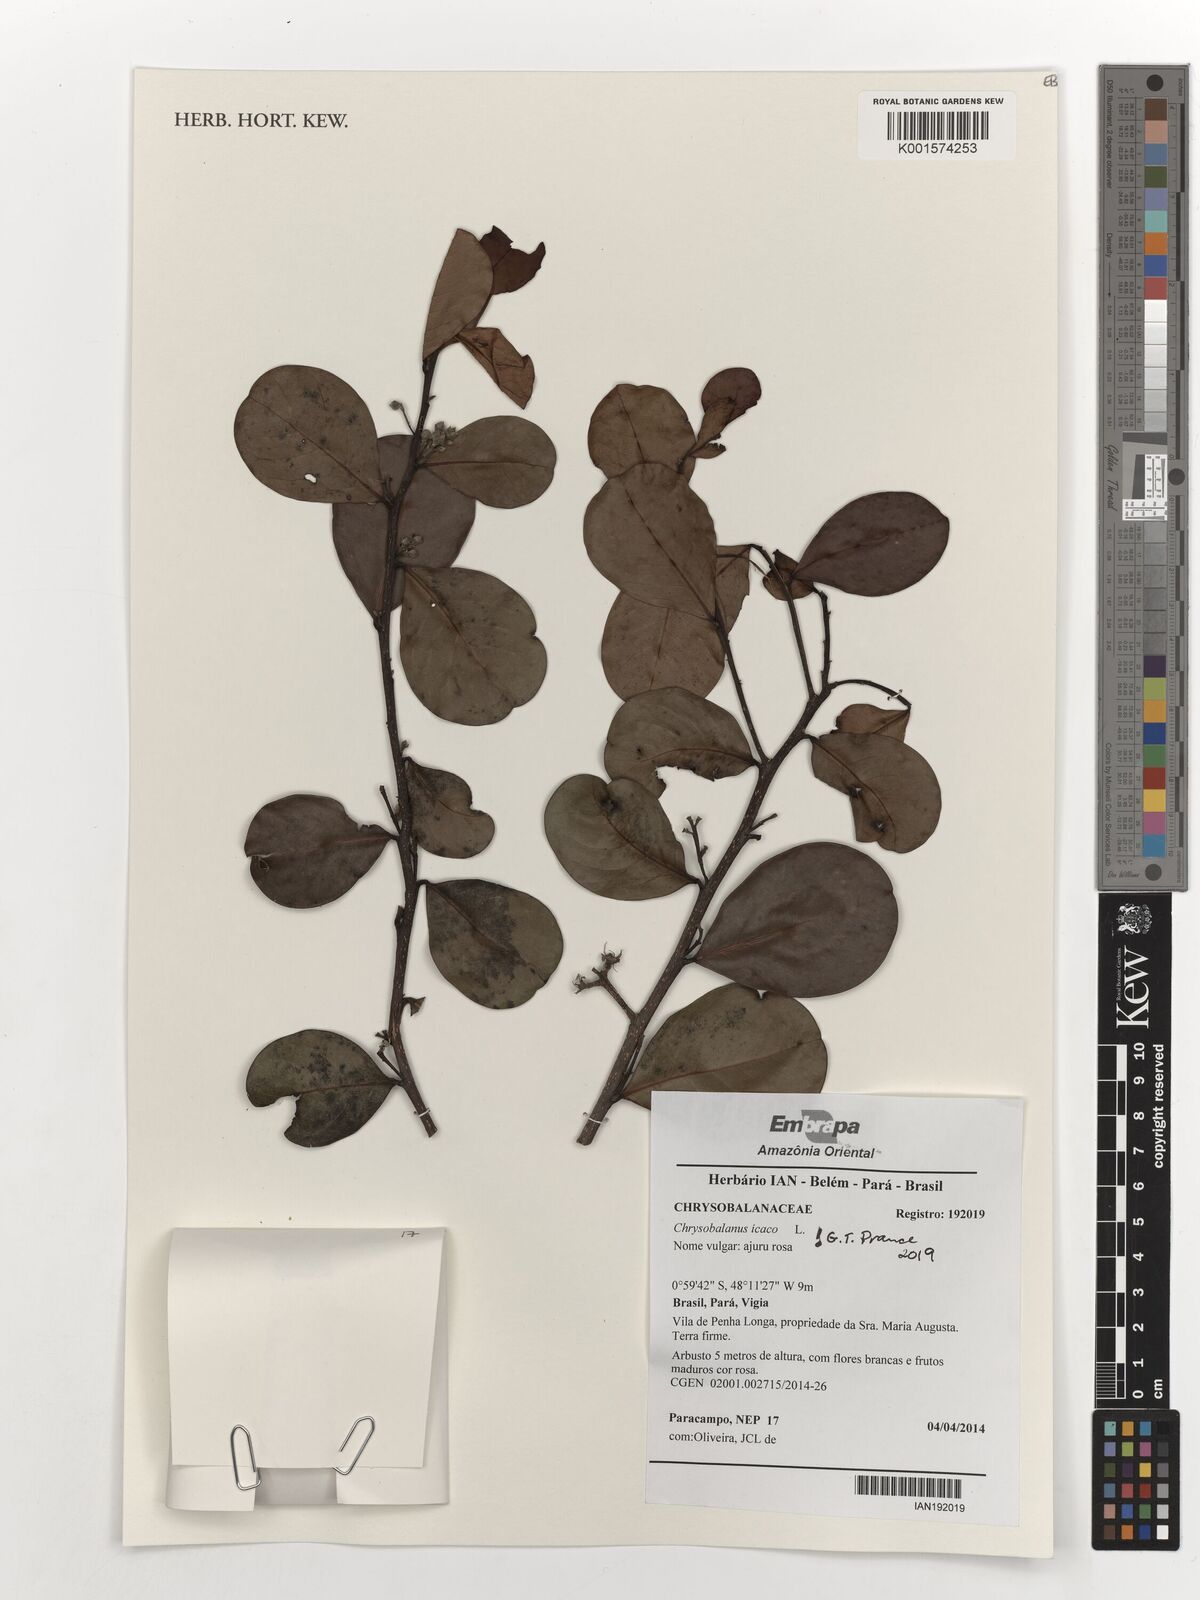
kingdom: Plantae
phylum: Tracheophyta
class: Magnoliopsida
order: Malpighiales
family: Chrysobalanaceae
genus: Chrysobalanus
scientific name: Chrysobalanus icaco
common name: Coco plum
